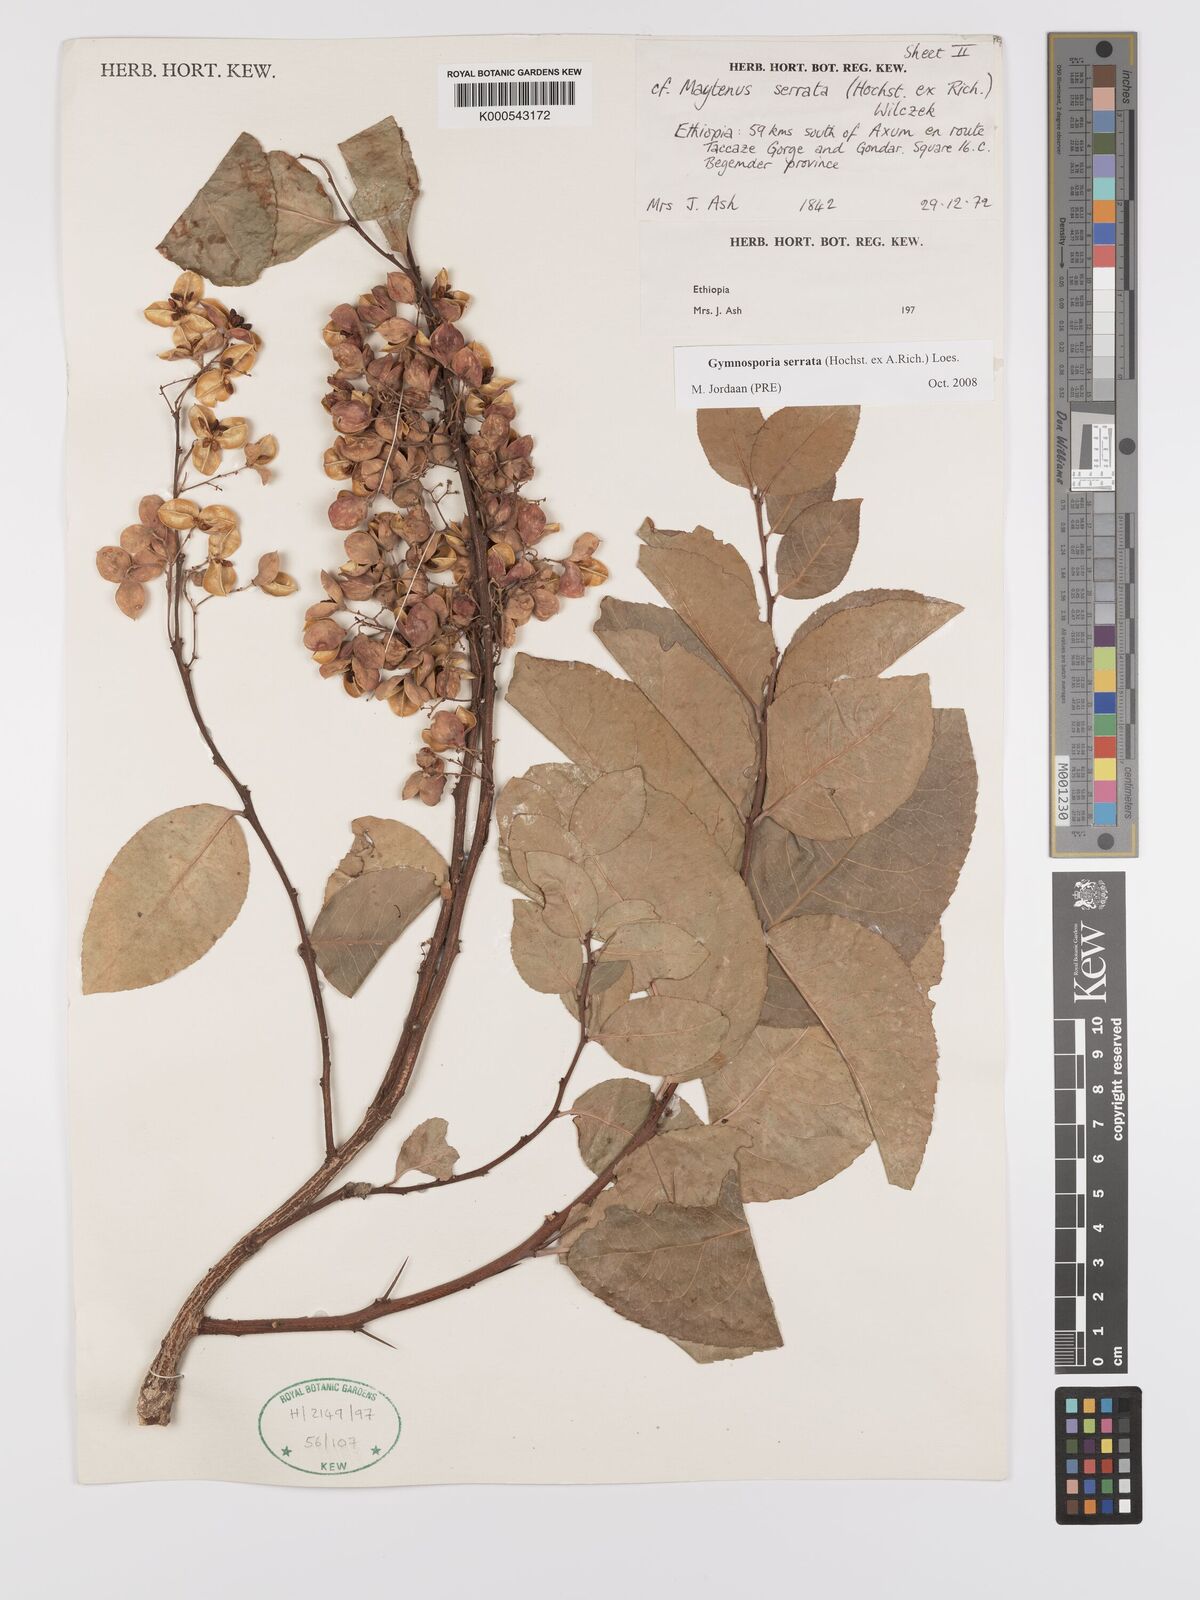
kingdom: Plantae
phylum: Tracheophyta
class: Magnoliopsida
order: Celastrales
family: Celastraceae
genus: Gymnosporia
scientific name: Gymnosporia serrata
